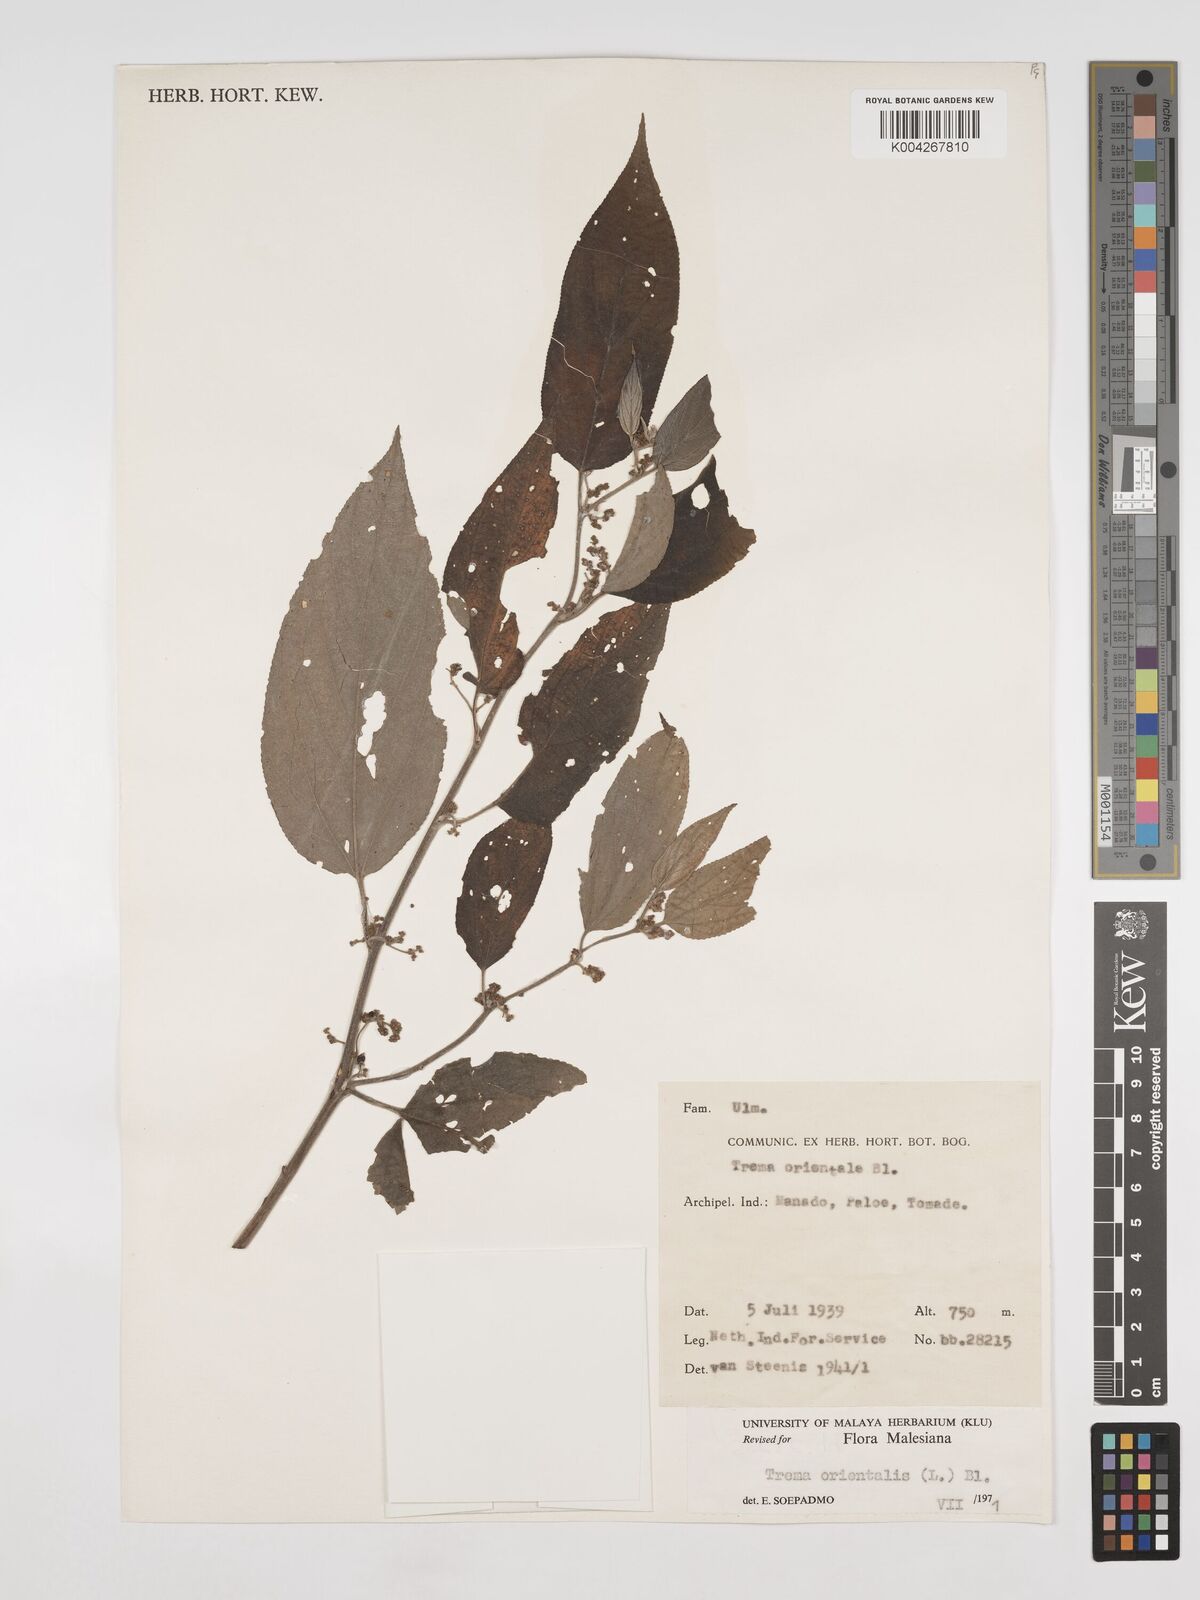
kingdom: Plantae
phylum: Tracheophyta
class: Magnoliopsida
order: Rosales
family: Cannabaceae
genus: Trema
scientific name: Trema orientale
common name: Indian charcoal tree
